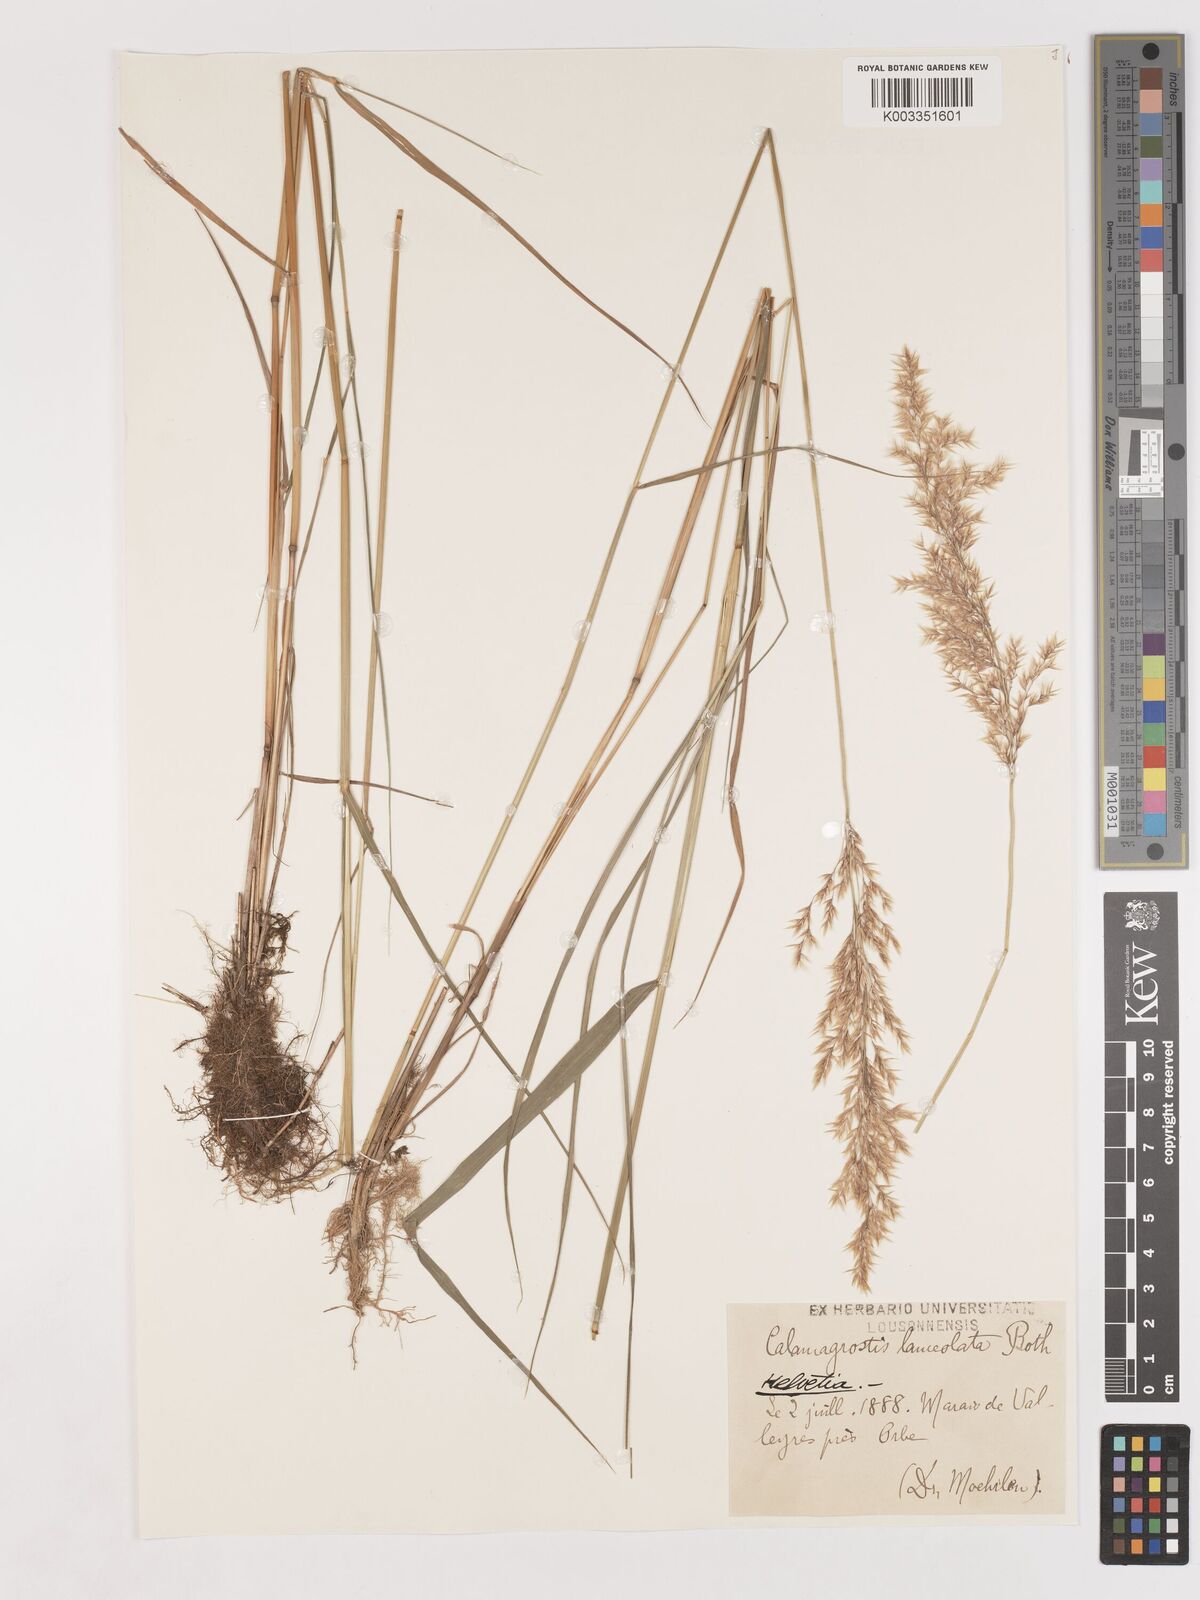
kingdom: Plantae
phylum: Tracheophyta
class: Liliopsida
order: Poales
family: Poaceae
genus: Calamagrostis
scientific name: Calamagrostis canescens
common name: Purple small-reed
